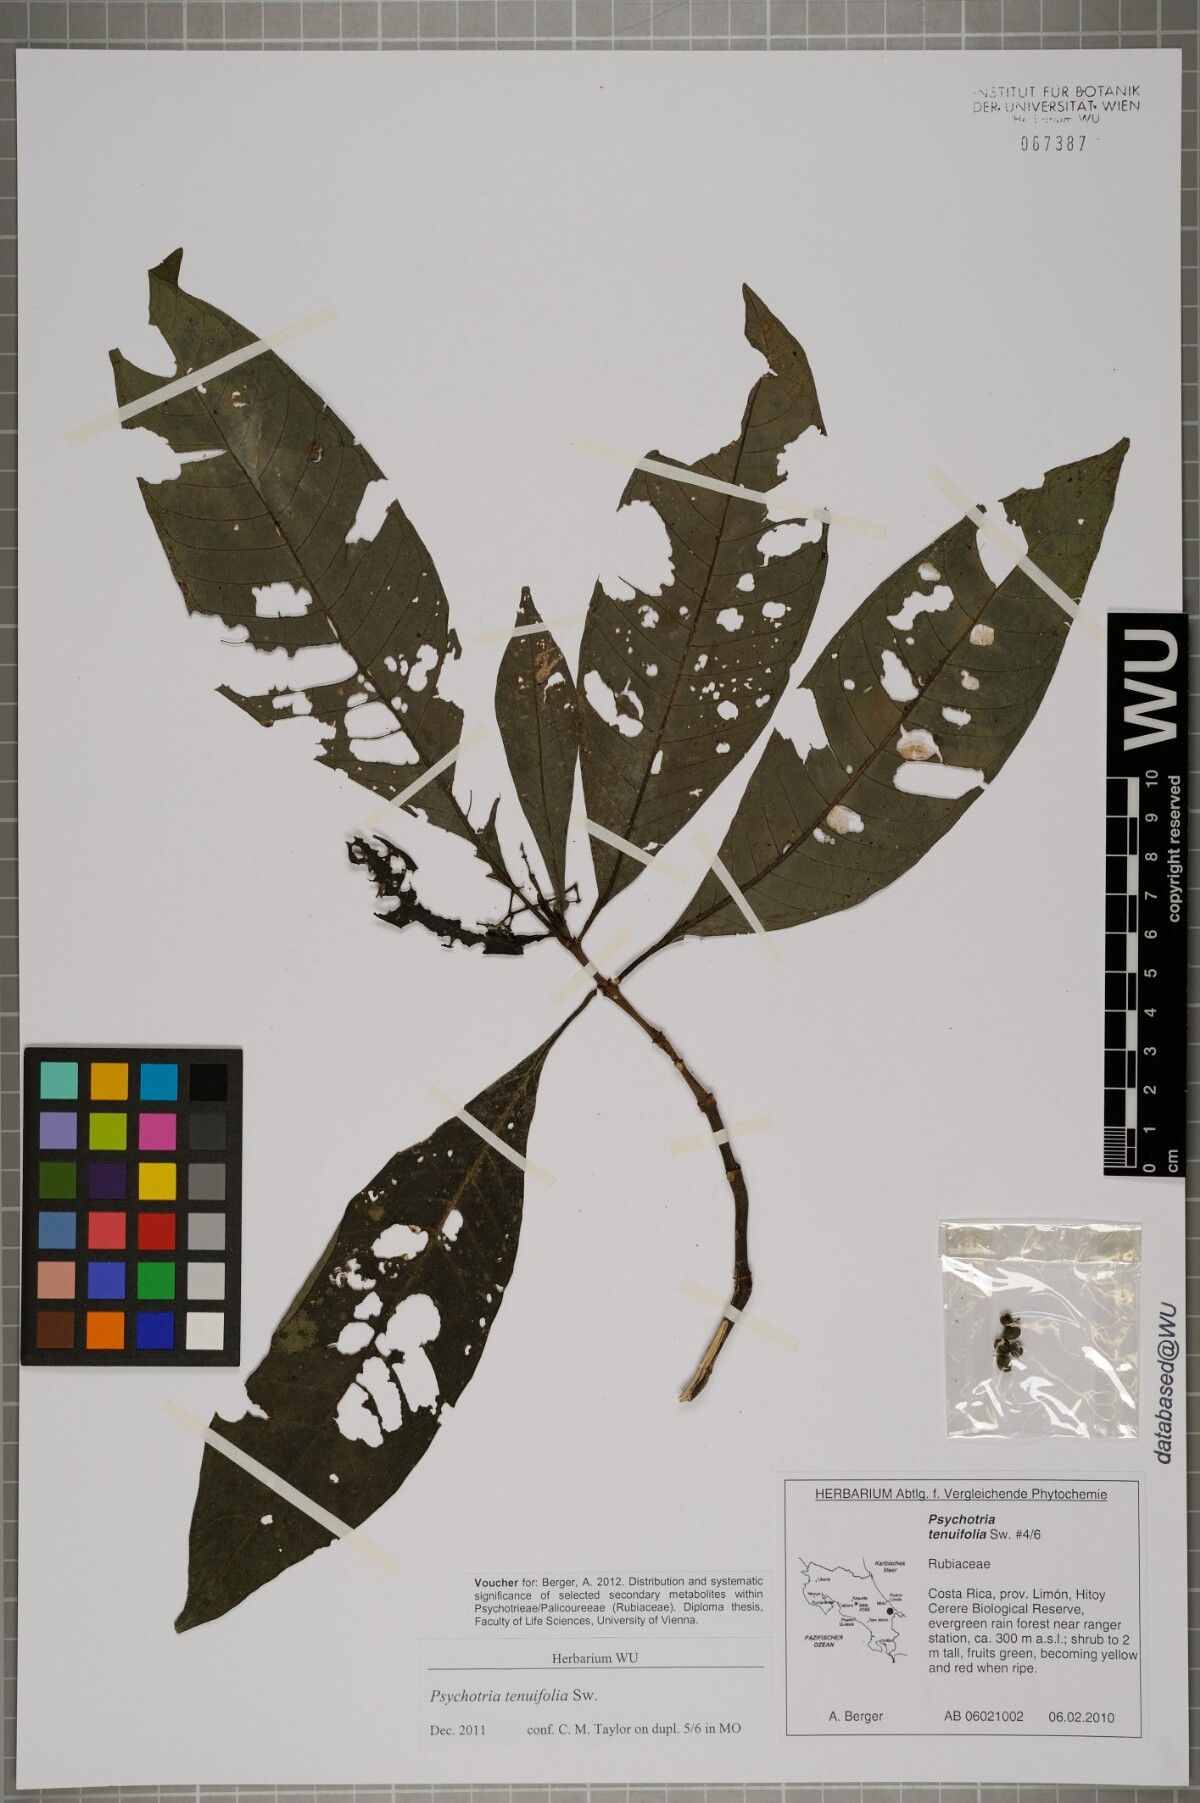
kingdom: Plantae
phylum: Tracheophyta
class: Magnoliopsida
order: Gentianales
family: Rubiaceae
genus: Psychotria
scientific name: Psychotria tenuifolia
